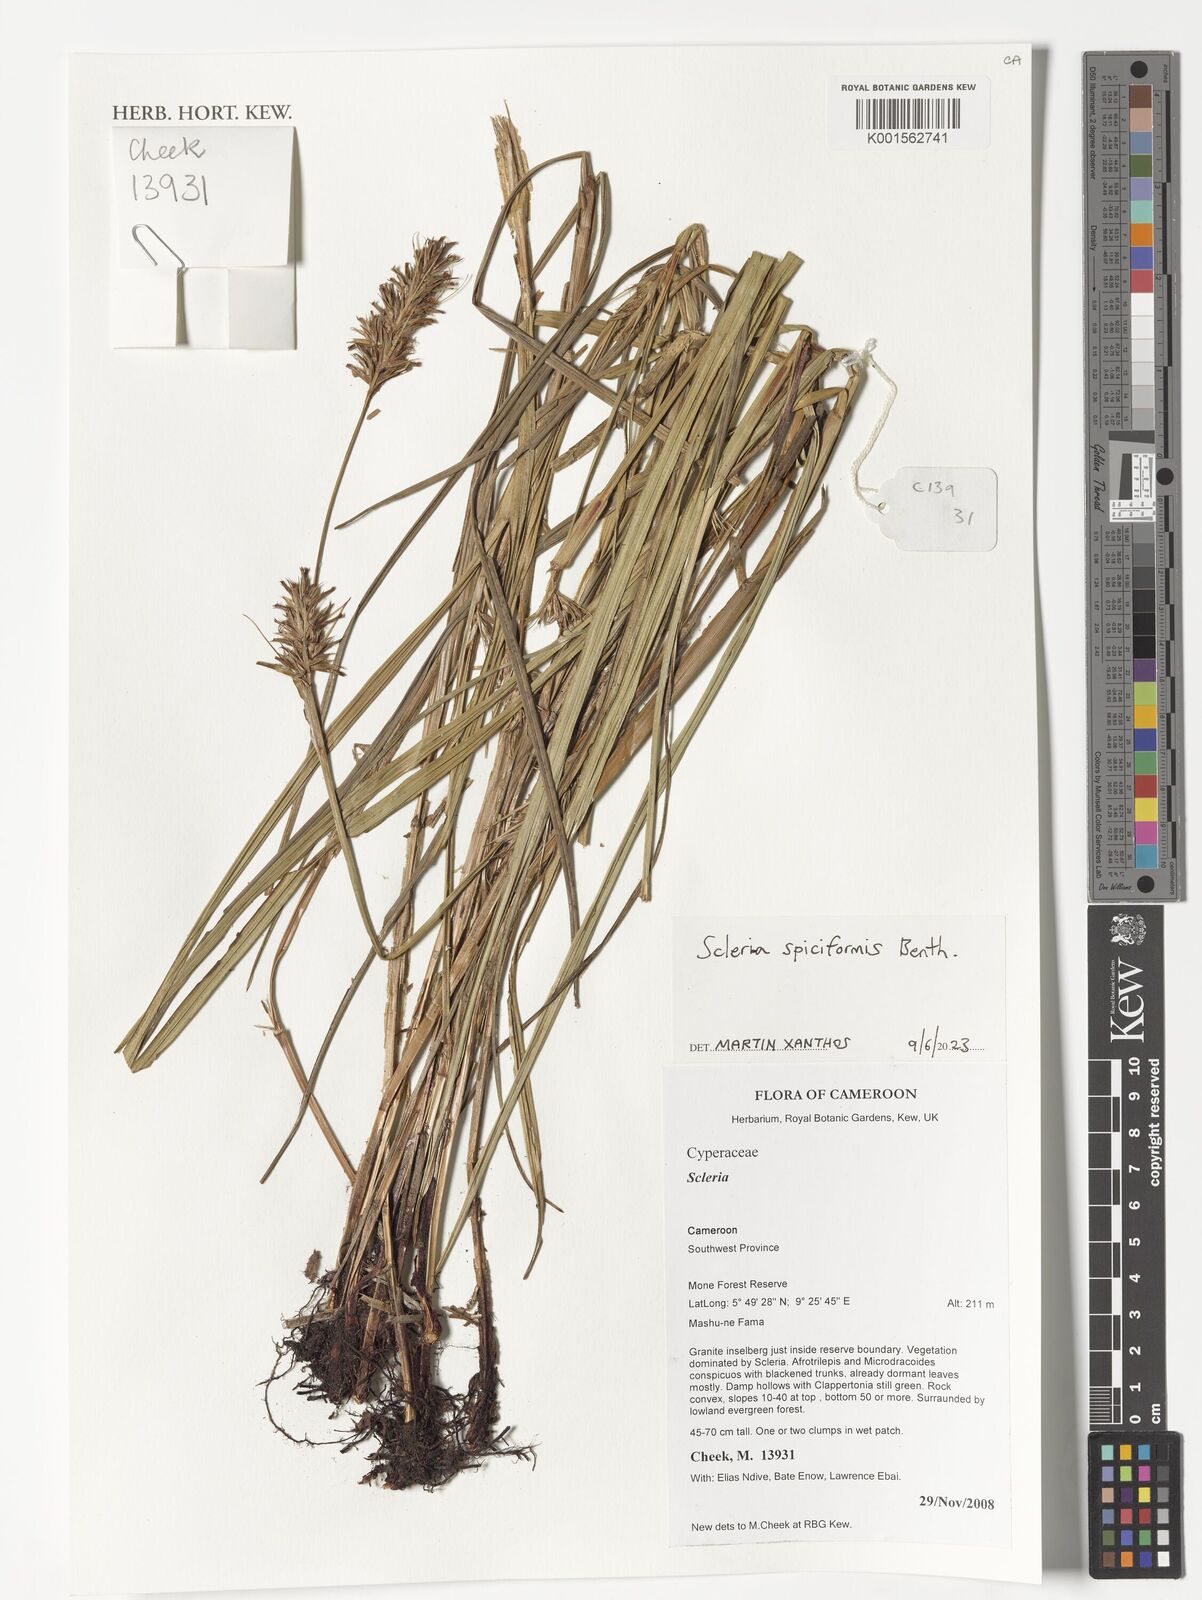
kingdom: Plantae
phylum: Tracheophyta
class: Liliopsida
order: Poales
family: Cyperaceae
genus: Scleria
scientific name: Scleria spiciformis
